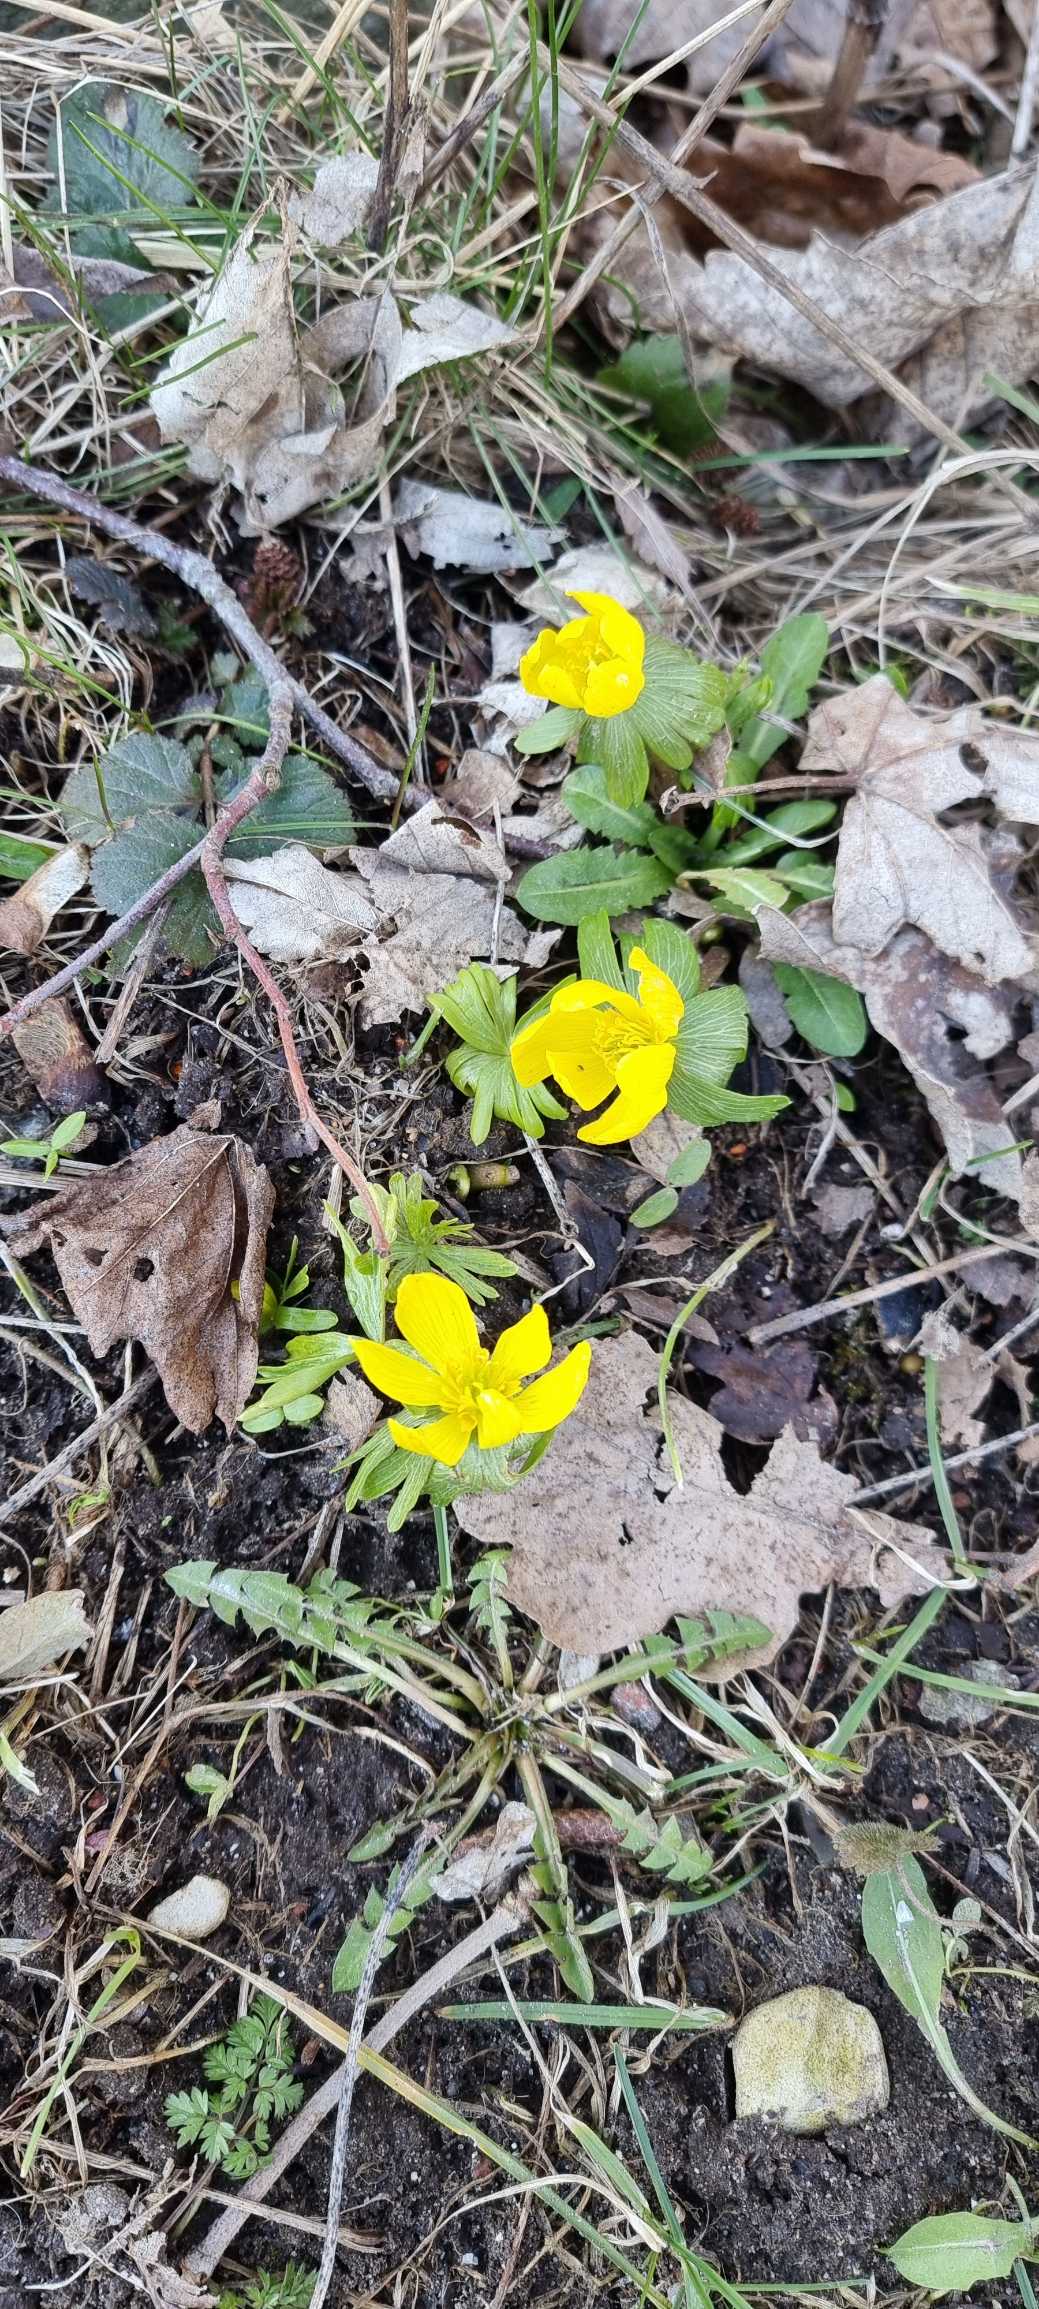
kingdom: Plantae
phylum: Tracheophyta
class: Magnoliopsida
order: Ranunculales
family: Ranunculaceae
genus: Eranthis
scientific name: Eranthis hyemalis
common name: Erantis
